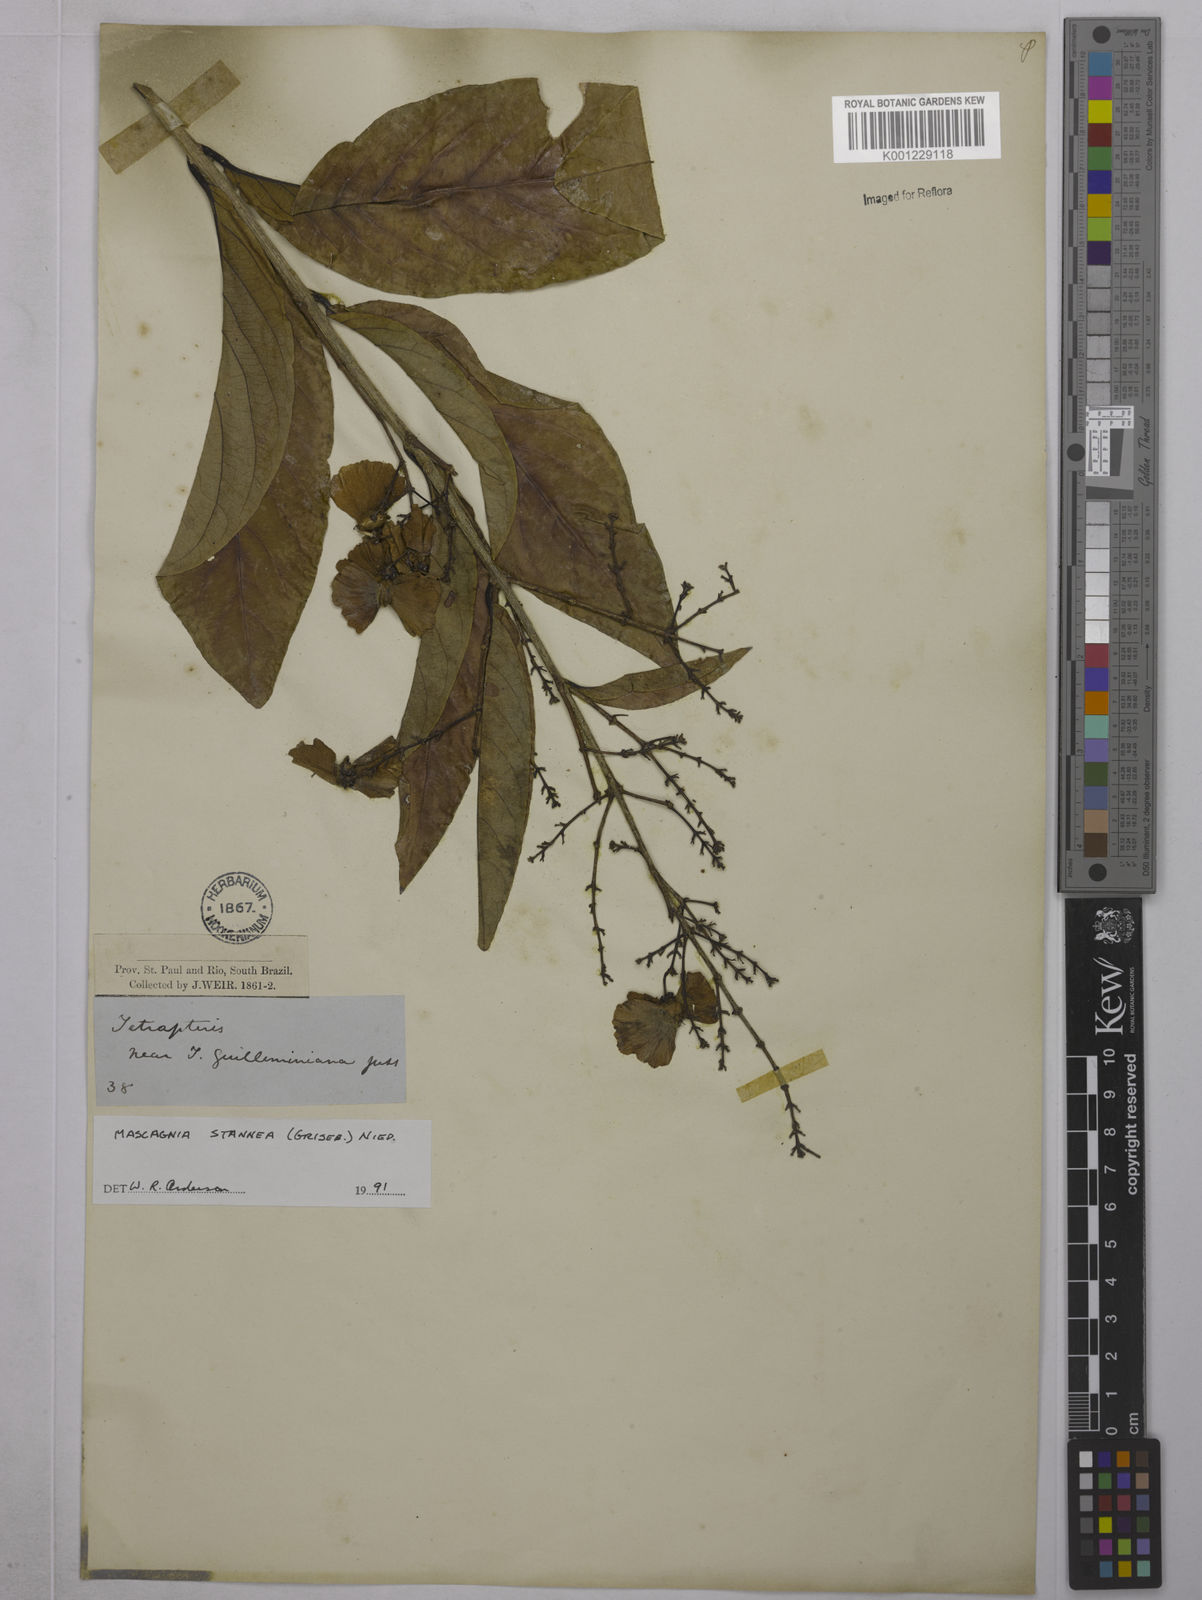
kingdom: Plantae
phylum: Tracheophyta
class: Magnoliopsida
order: Malpighiales
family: Malpighiaceae
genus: Niedenzuella
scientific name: Niedenzuella stannea
